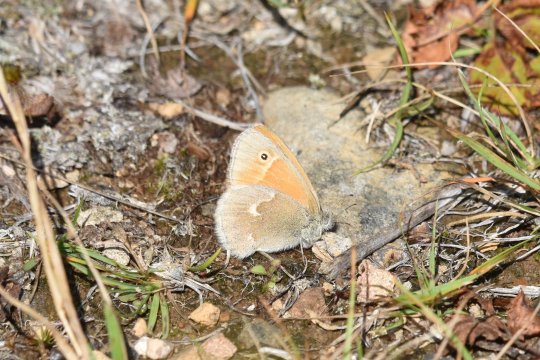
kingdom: Animalia
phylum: Arthropoda
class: Insecta
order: Lepidoptera
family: Nymphalidae
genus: Coenonympha
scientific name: Coenonympha tullia
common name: Large Heath
